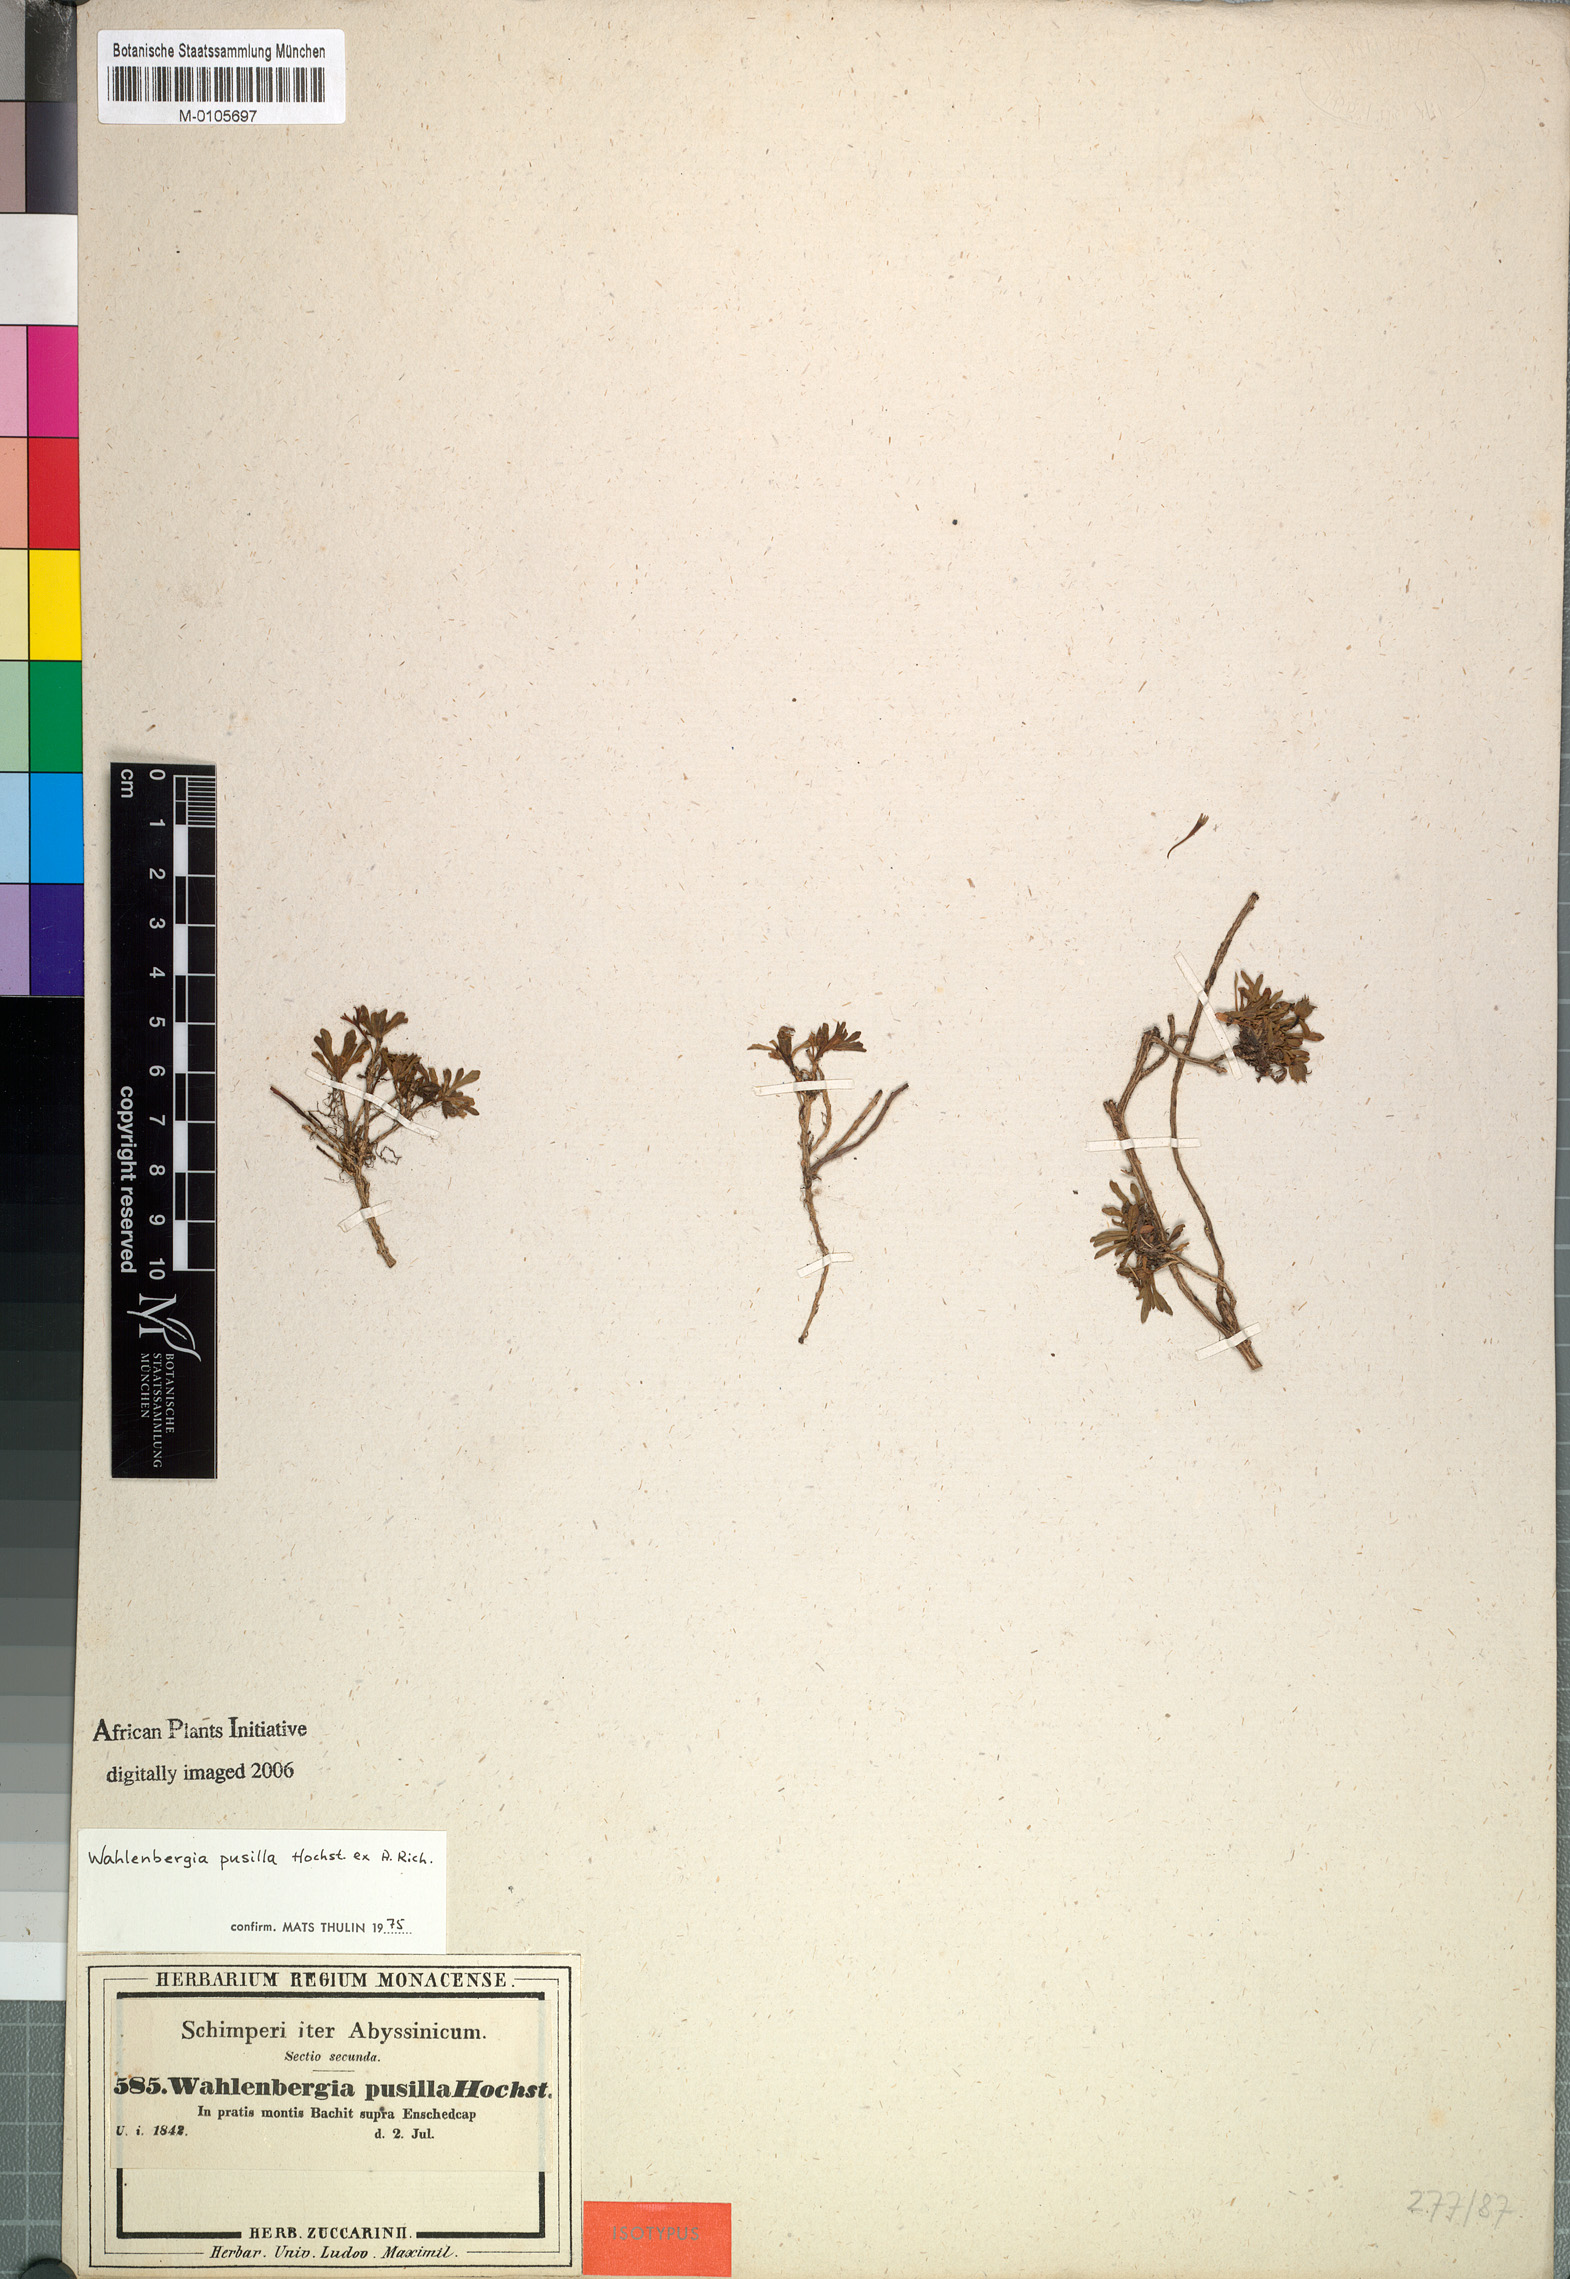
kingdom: Plantae
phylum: Tracheophyta
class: Magnoliopsida
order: Asterales
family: Campanulaceae
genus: Wahlenbergia
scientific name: Wahlenbergia pusilla
